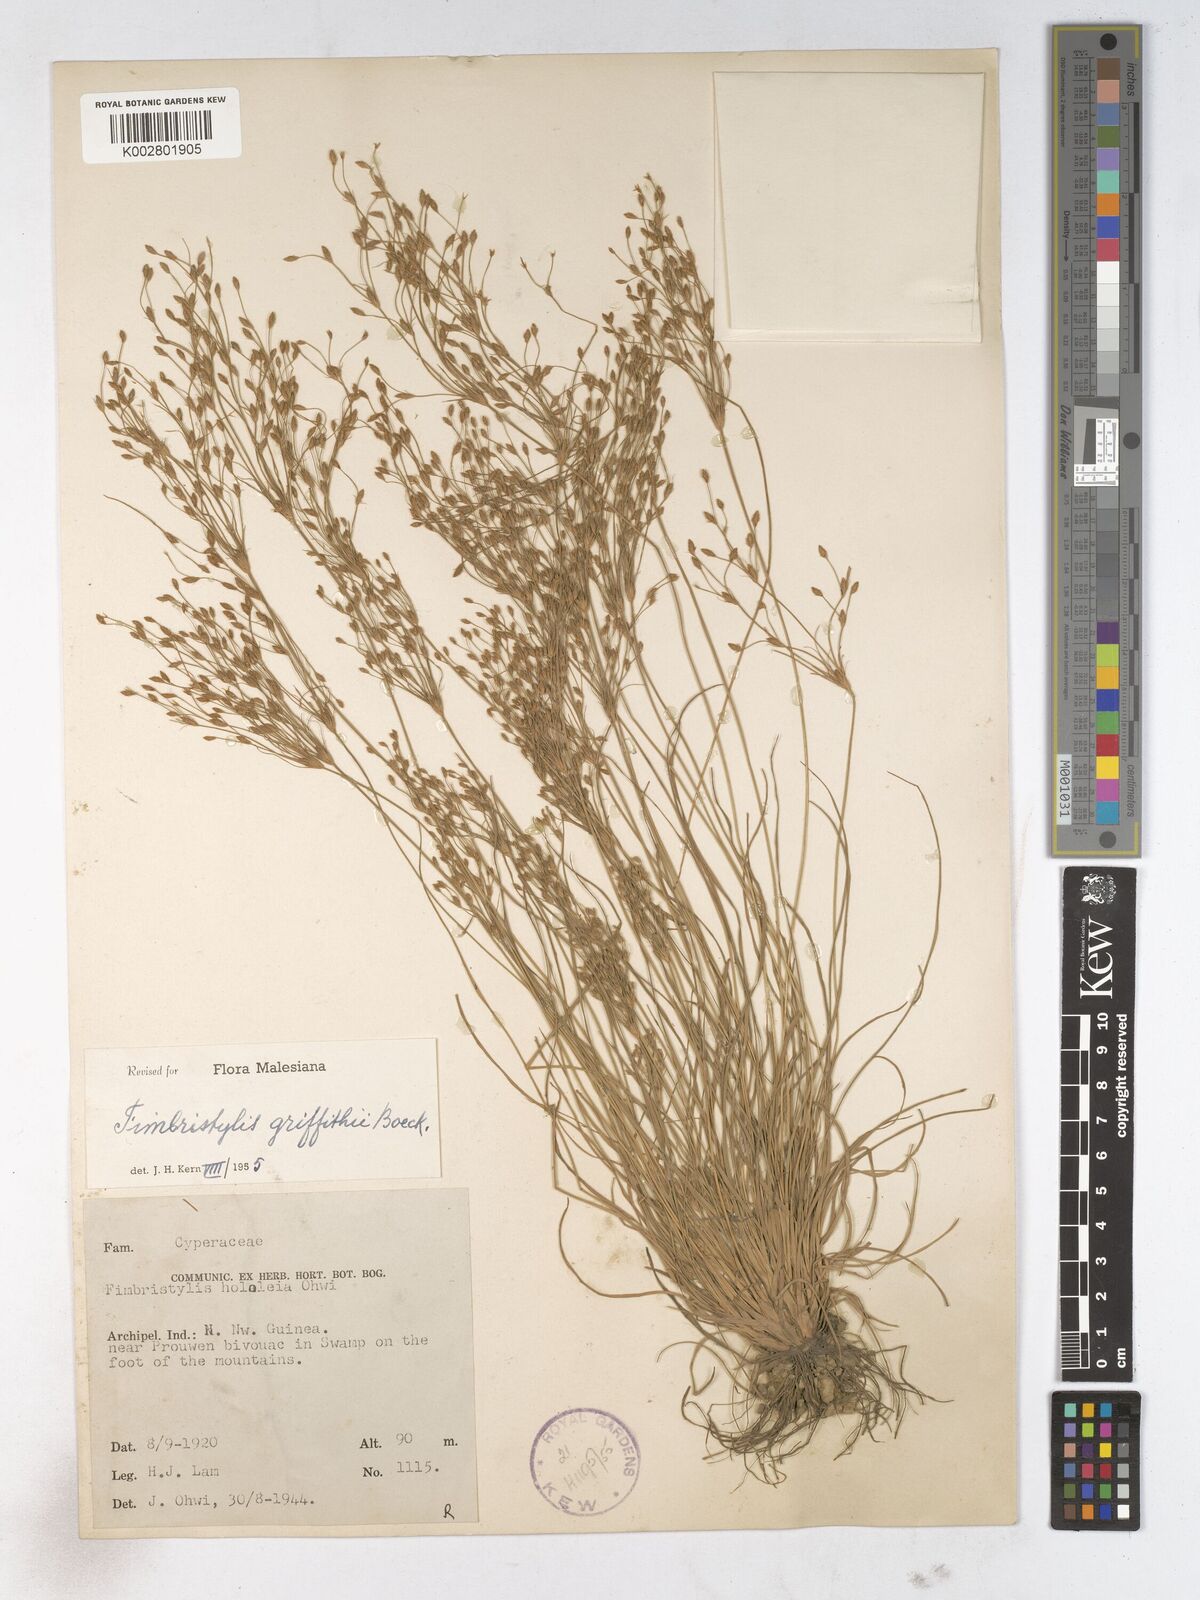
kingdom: Plantae
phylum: Tracheophyta
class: Liliopsida
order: Poales
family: Cyperaceae
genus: Fimbristylis
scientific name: Fimbristylis griffithii
